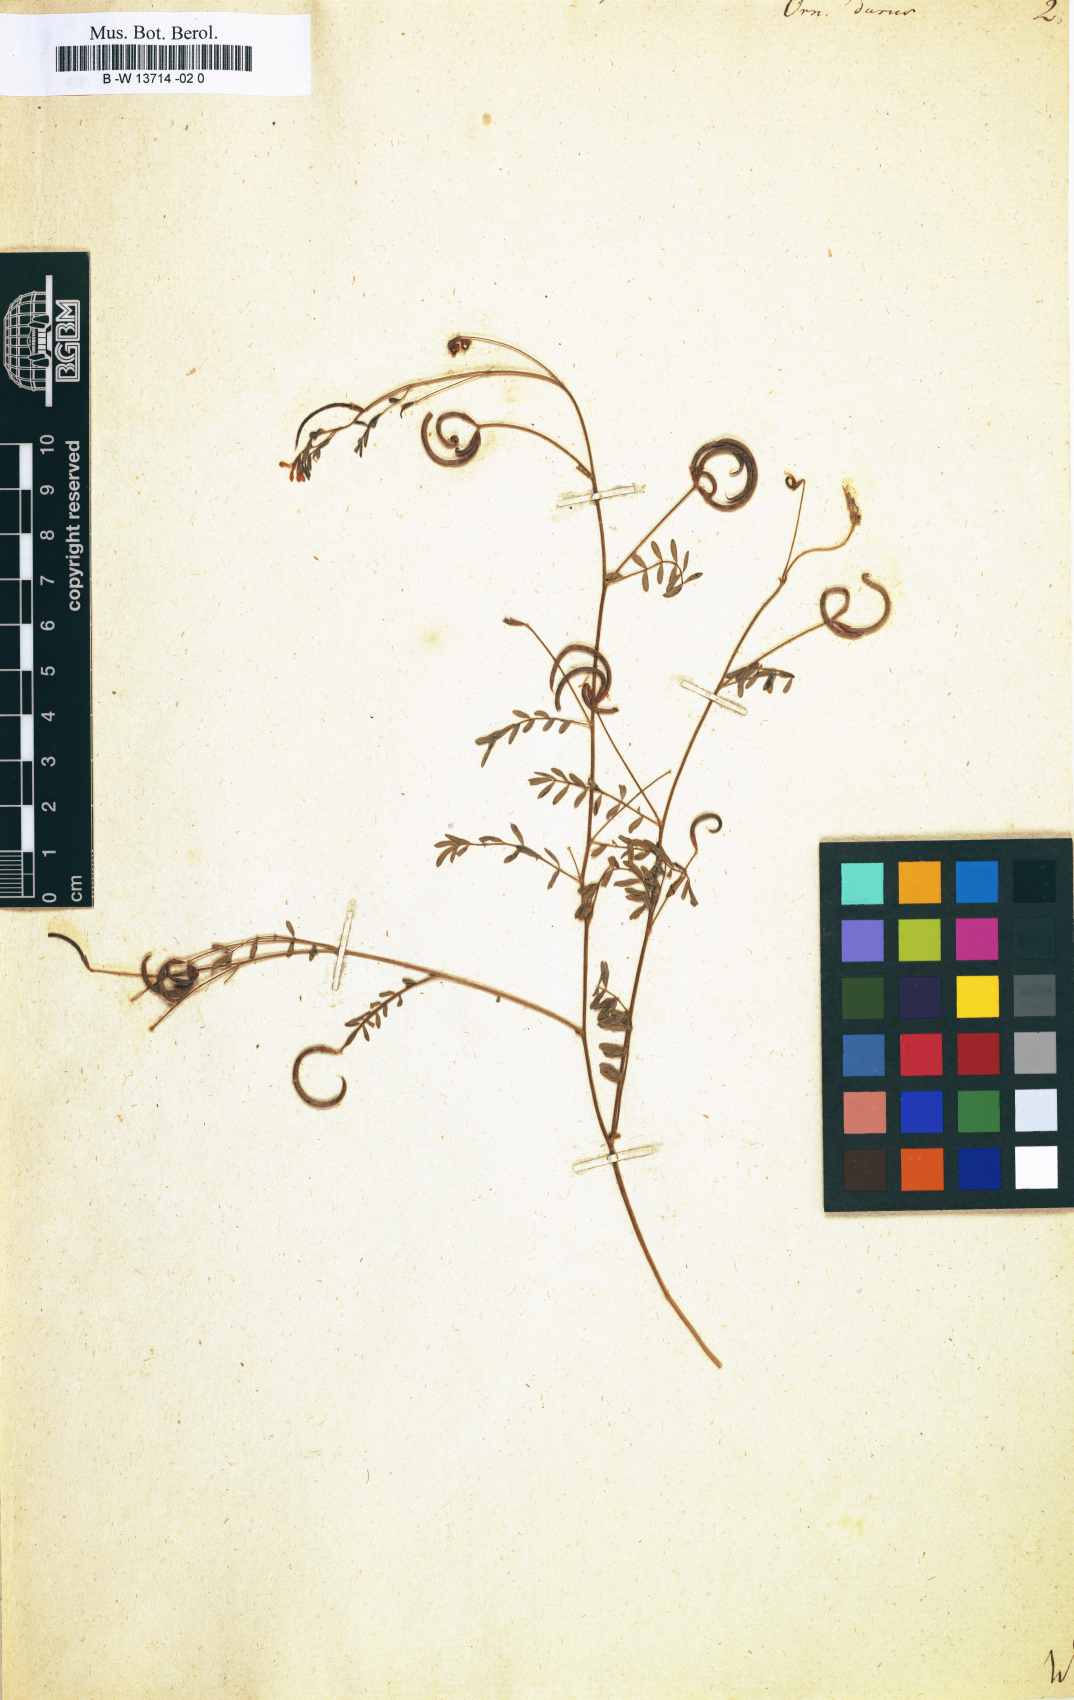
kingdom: Plantae
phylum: Tracheophyta
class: Magnoliopsida
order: Fabales
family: Fabaceae
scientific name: Fabaceae
